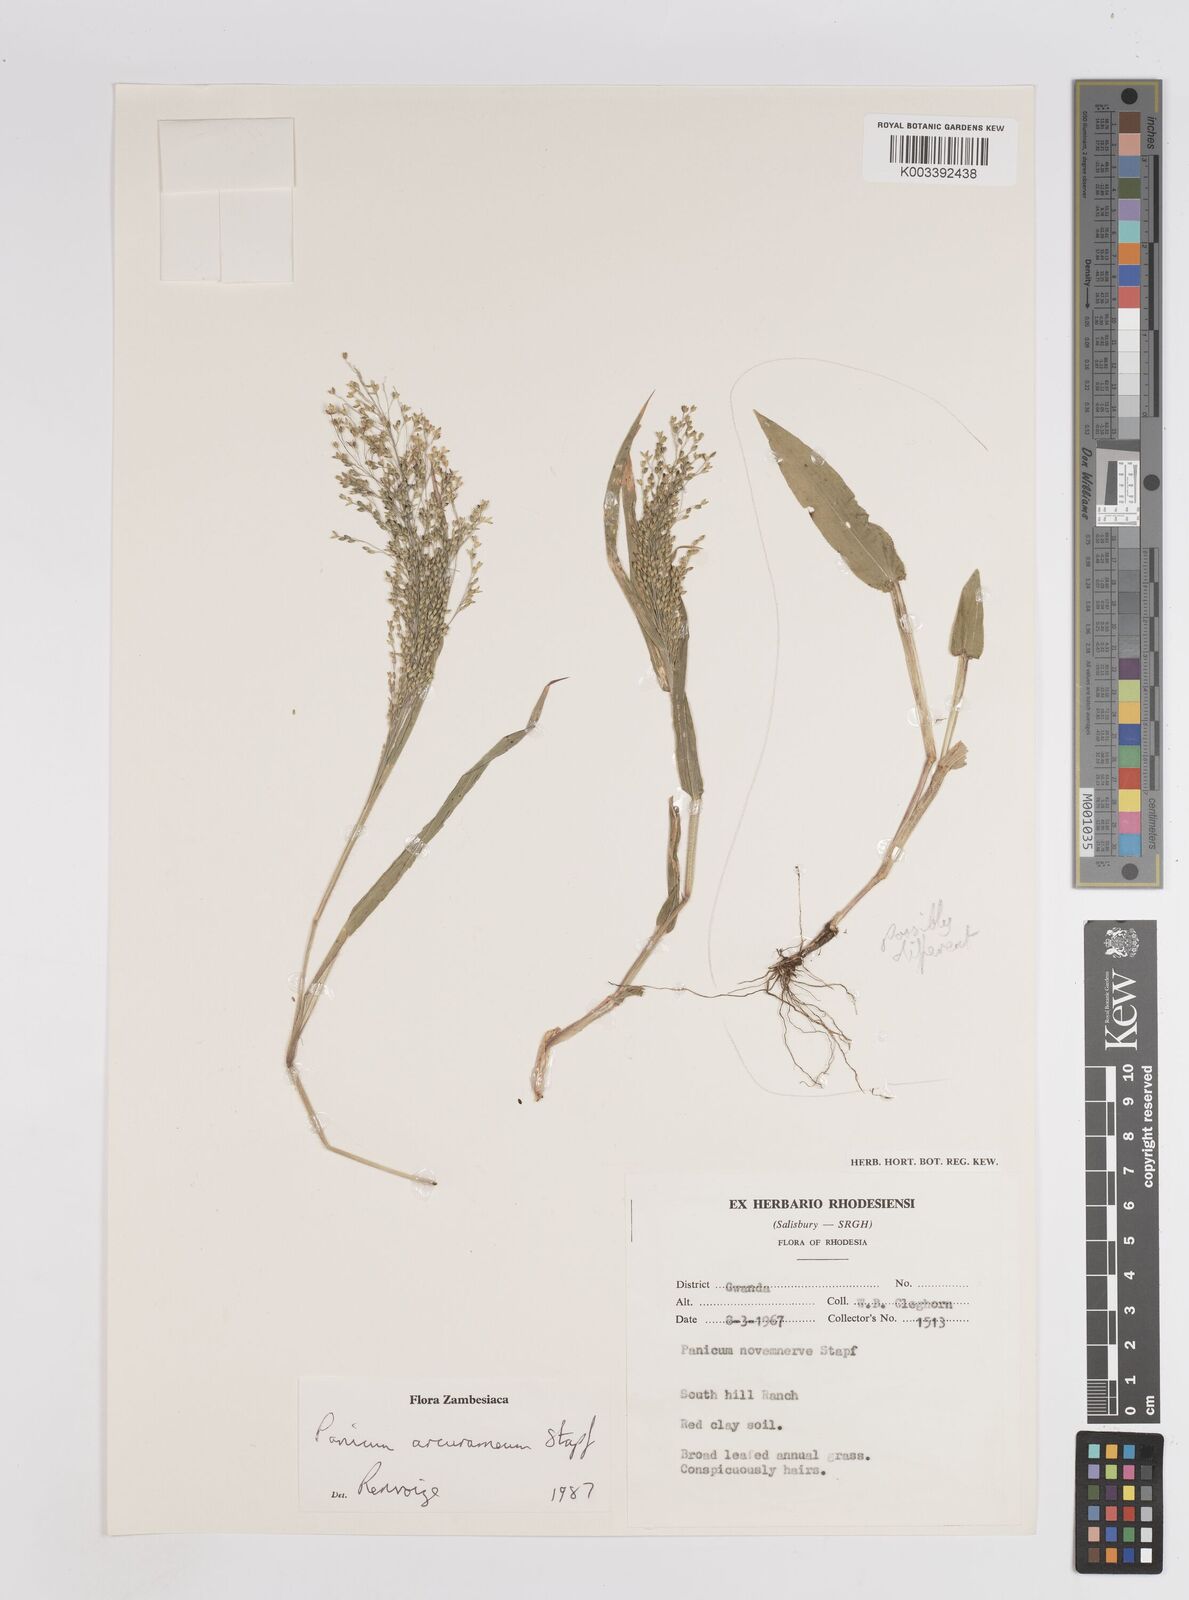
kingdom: Plantae
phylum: Tracheophyta
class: Liliopsida
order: Poales
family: Poaceae
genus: Panicum
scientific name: Panicum arcurameum
